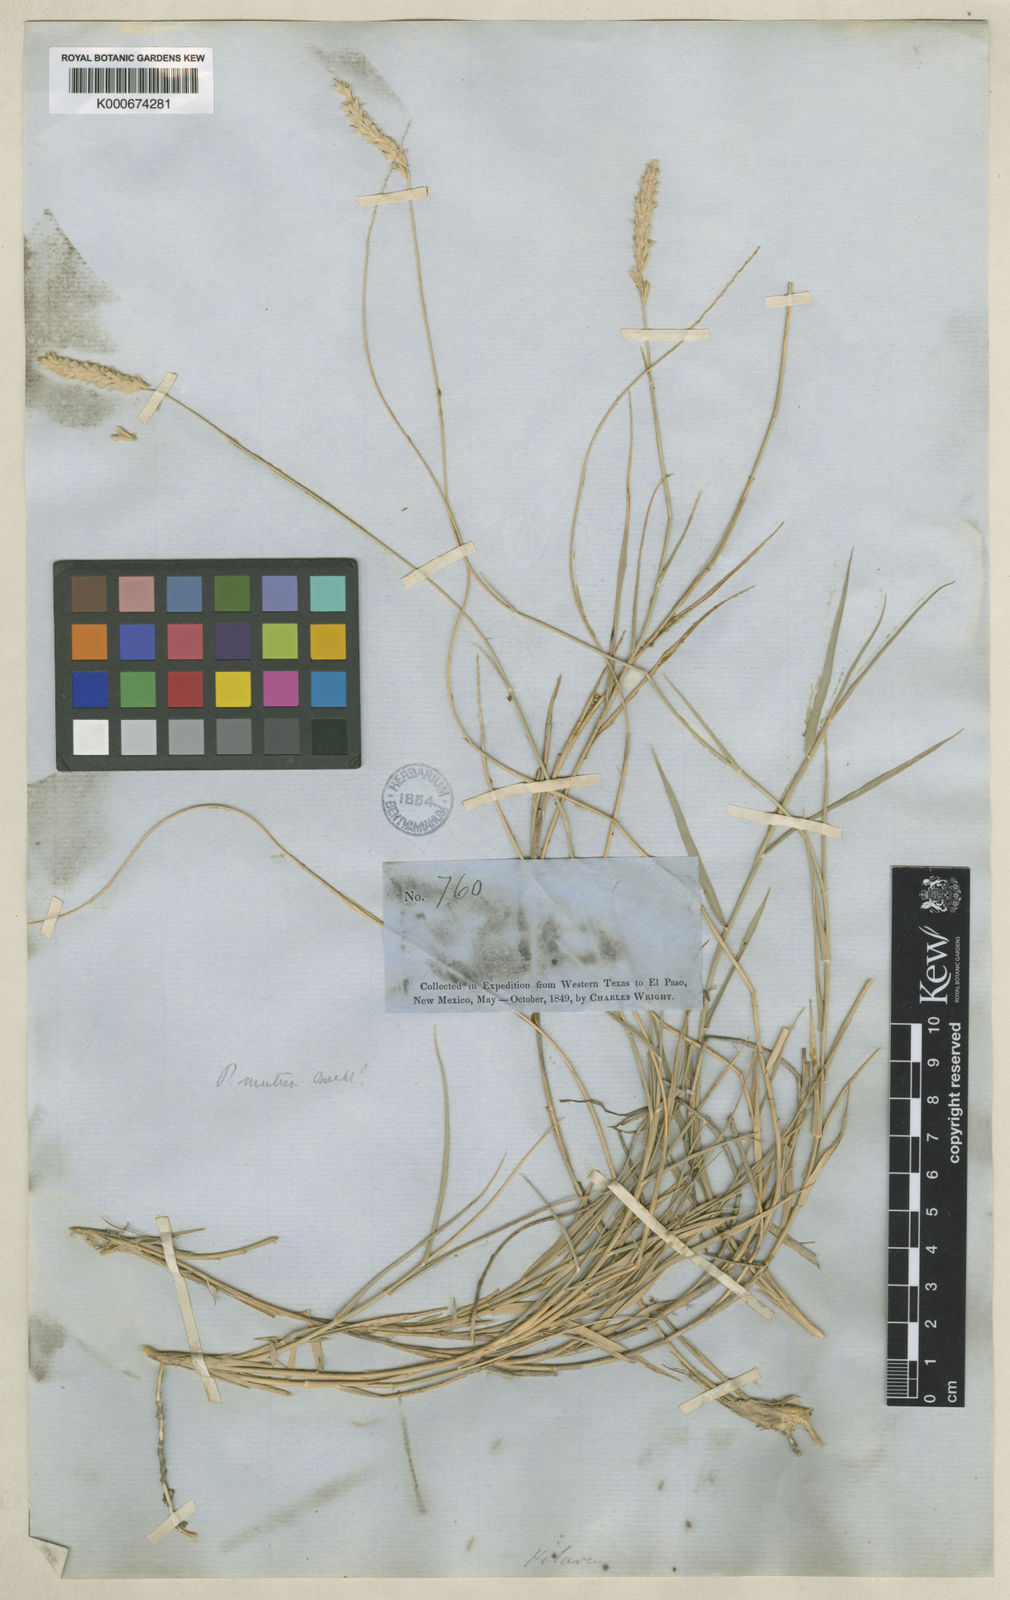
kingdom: Plantae
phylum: Tracheophyta
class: Liliopsida
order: Poales
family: Poaceae
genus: Hilaria
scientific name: Hilaria mutica
